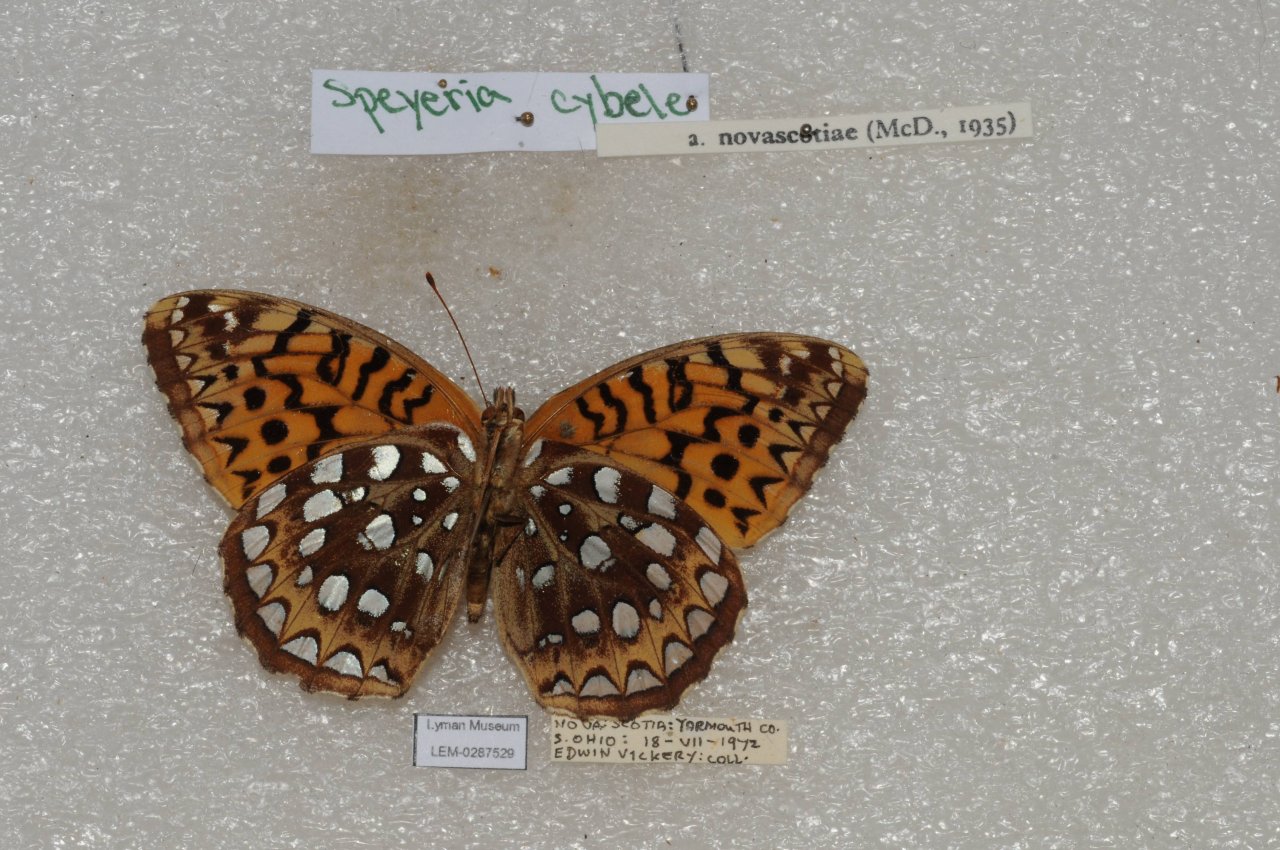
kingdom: Animalia
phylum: Arthropoda
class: Insecta
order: Lepidoptera
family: Nymphalidae
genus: Speyeria
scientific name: Speyeria cybele
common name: Great Spangled Fritillary
